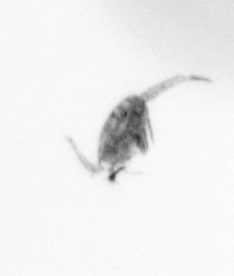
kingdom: Animalia
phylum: Arthropoda
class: Copepoda
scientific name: Copepoda
